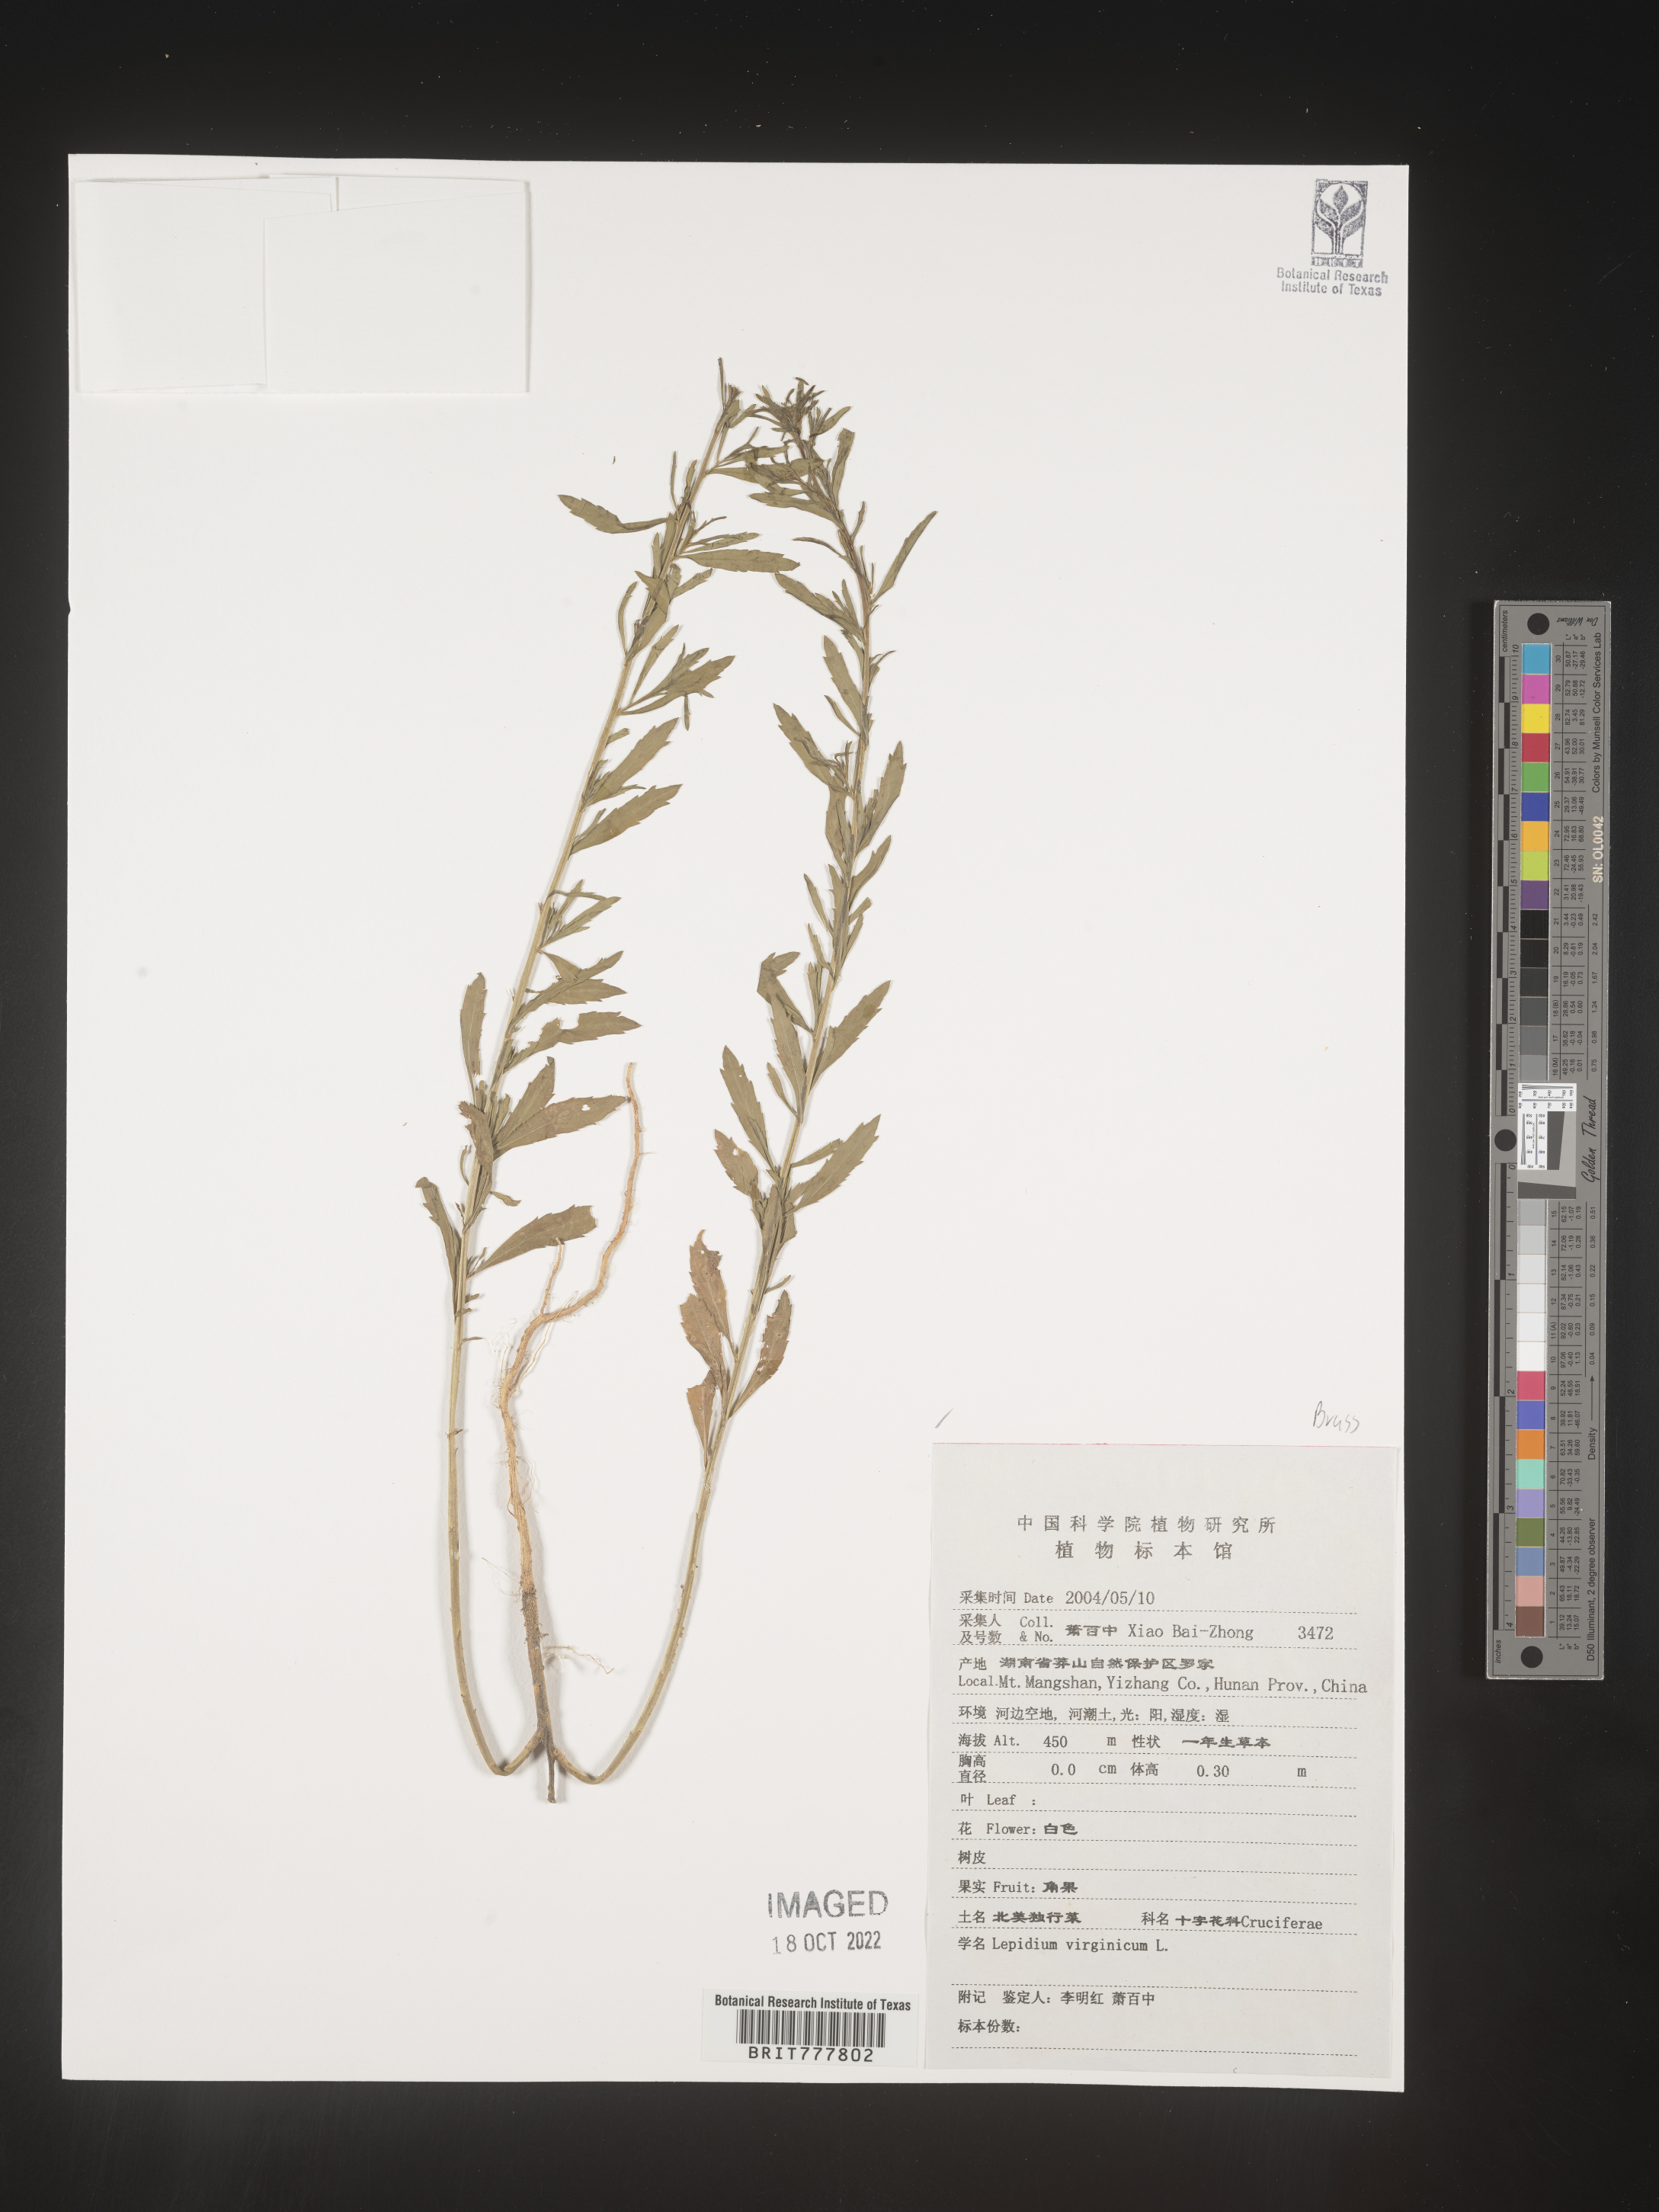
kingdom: Plantae
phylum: Tracheophyta
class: Magnoliopsida
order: Brassicales
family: Brassicaceae
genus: Lepidium
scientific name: Lepidium virginicum
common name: Least pepperwort
